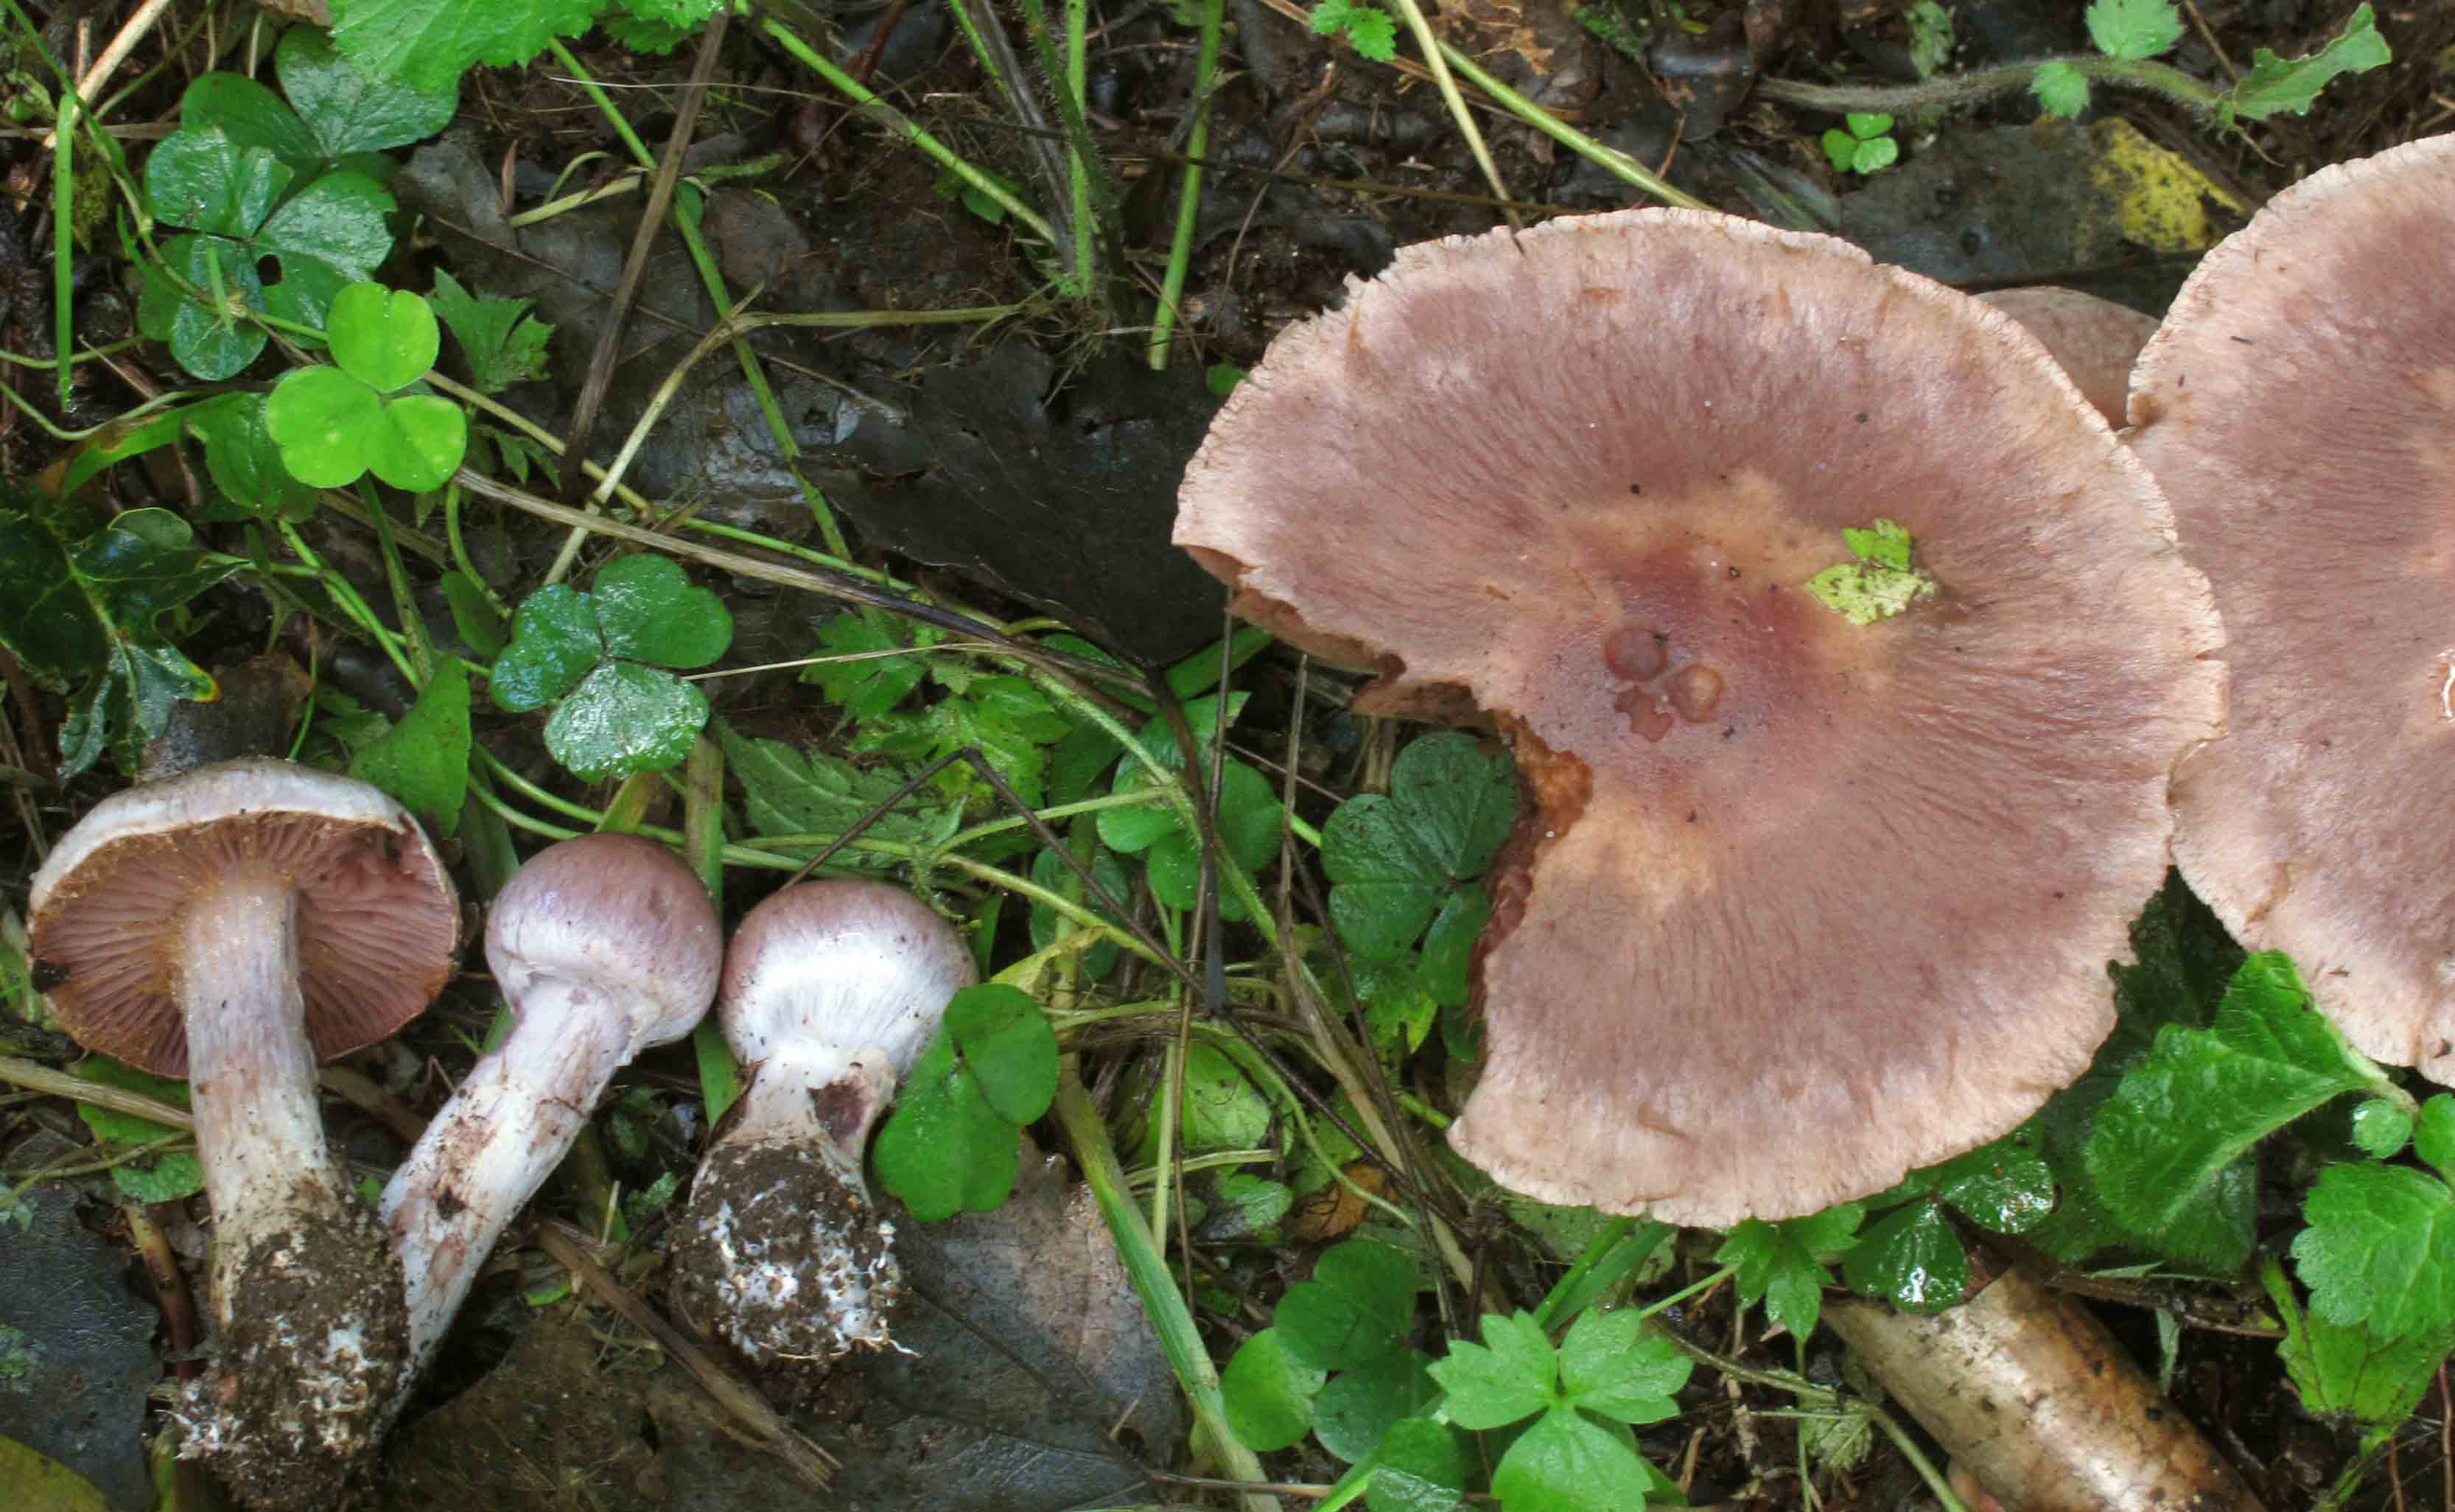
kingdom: Fungi
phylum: Basidiomycota
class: Agaricomycetes
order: Agaricales
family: Cortinariaceae
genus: Cortinarius
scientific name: Cortinarius lucorum
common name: aspe-slørhat
